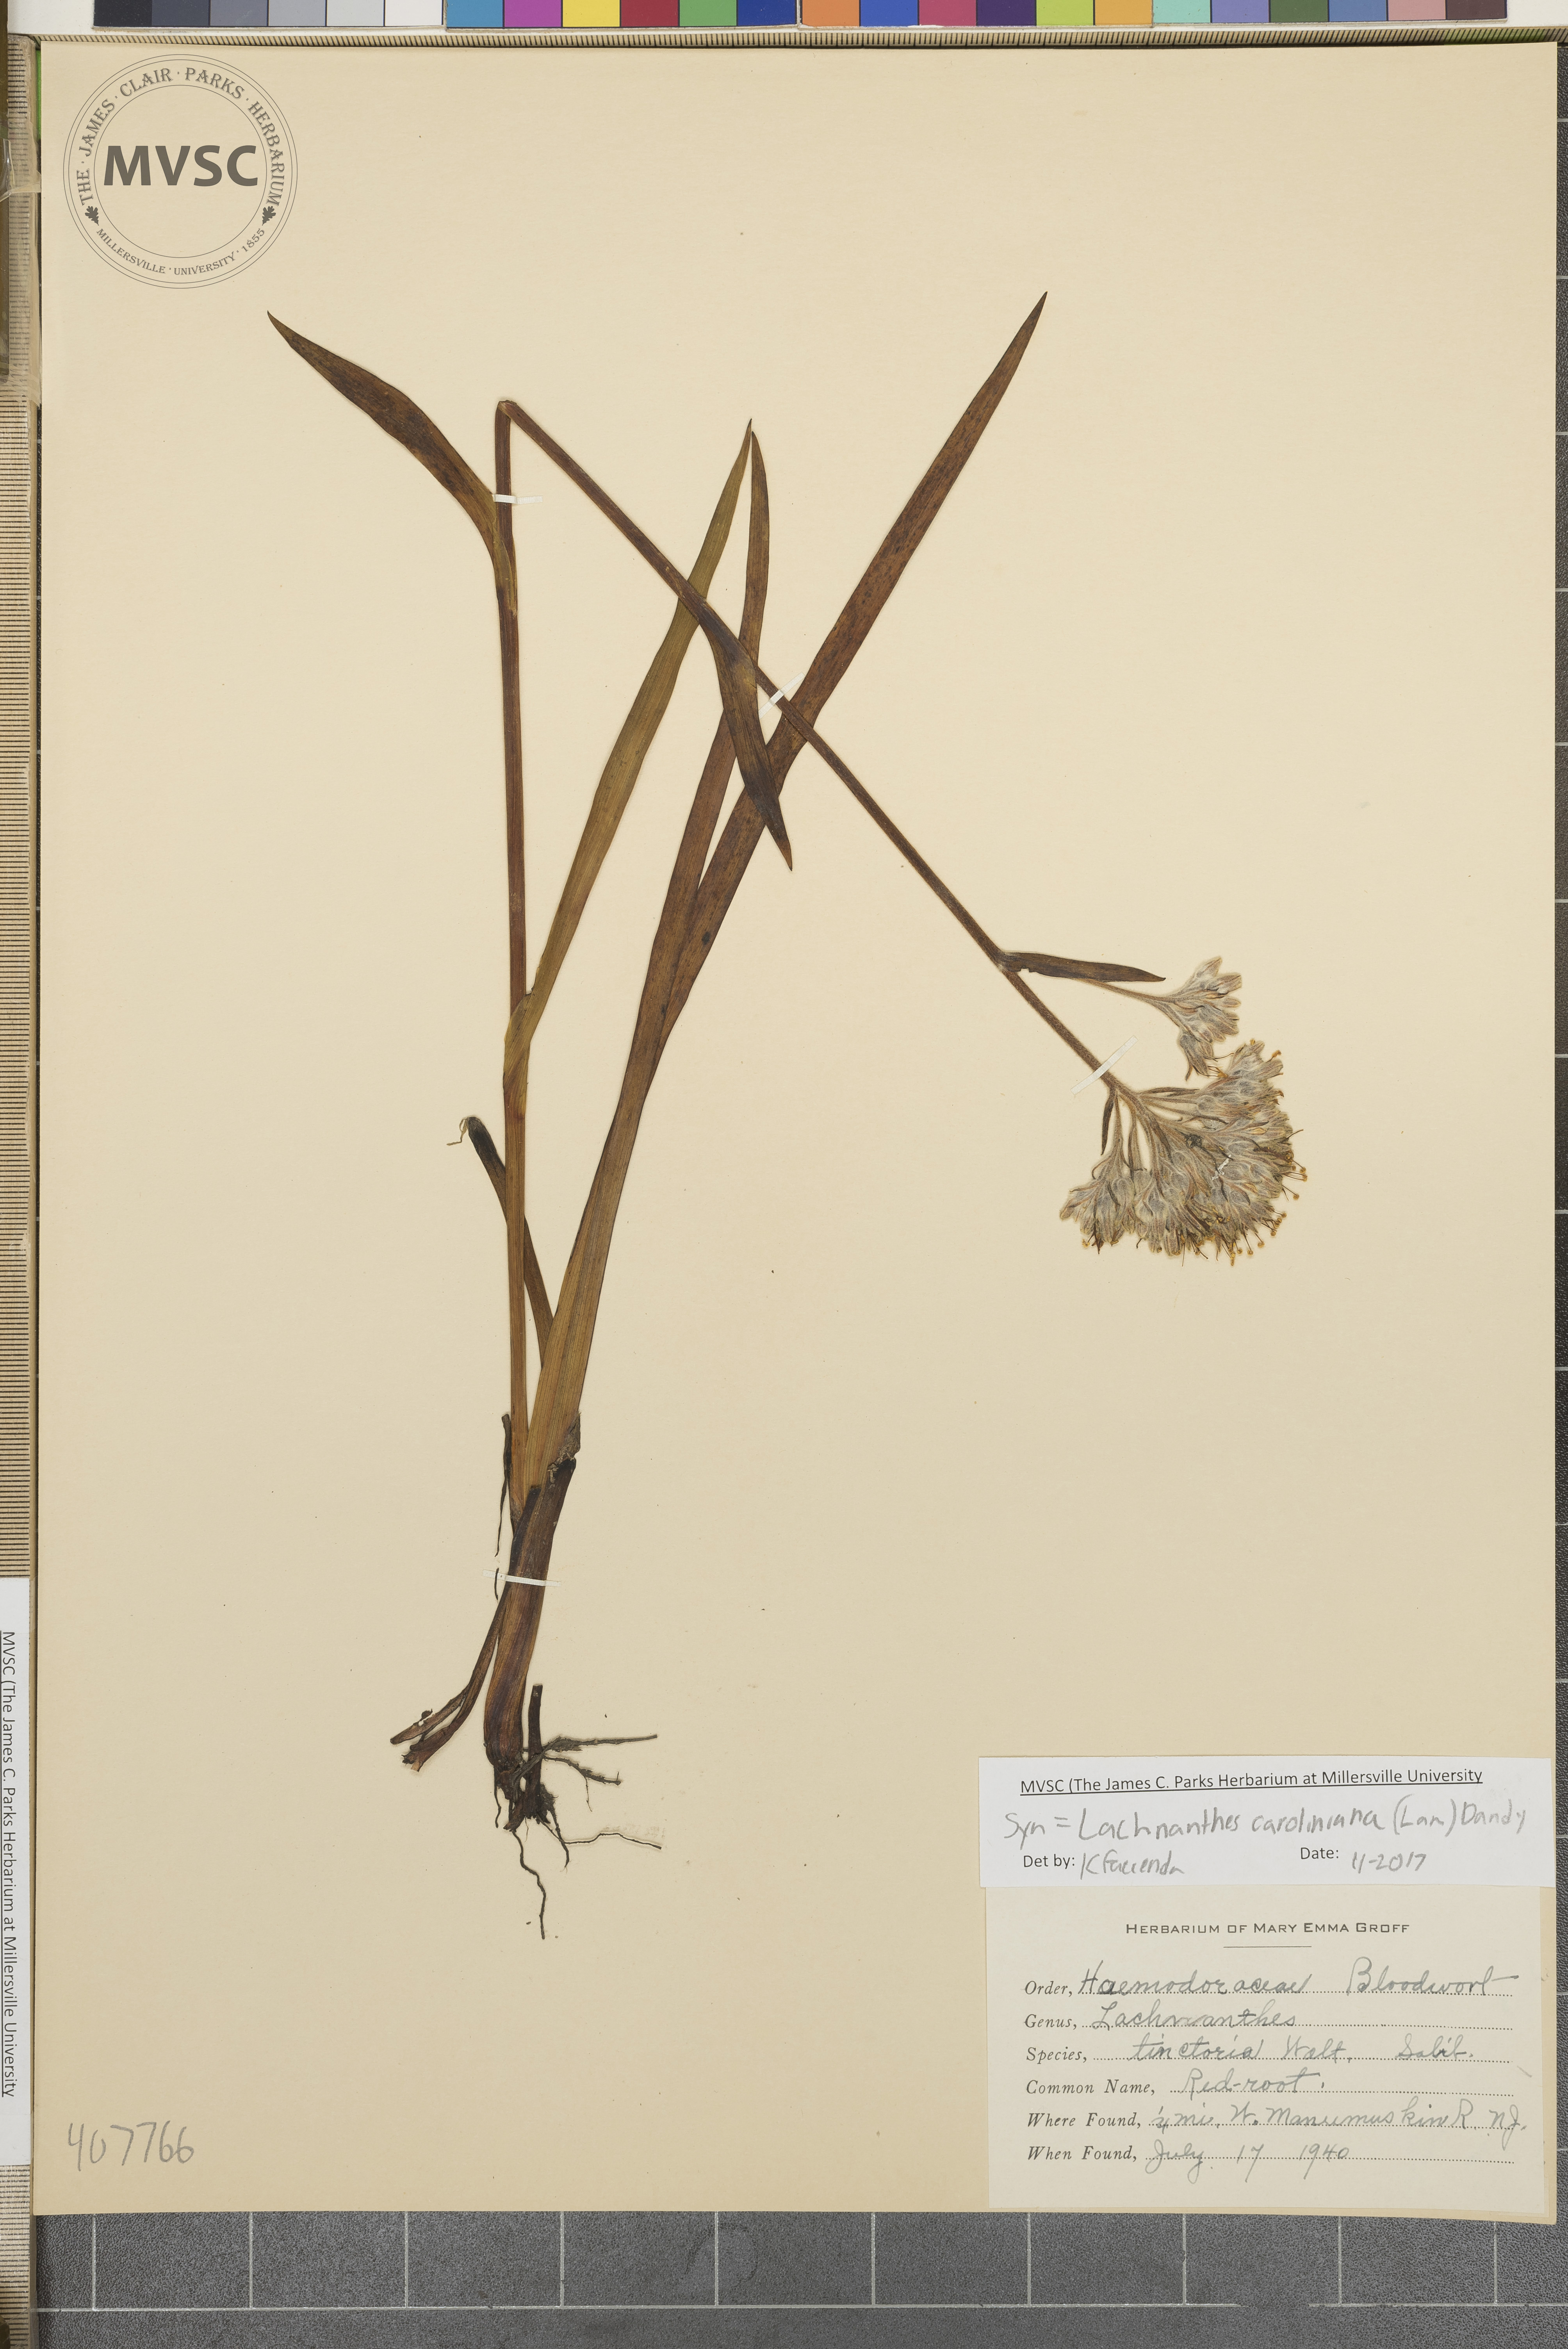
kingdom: Plantae
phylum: Tracheophyta
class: Liliopsida
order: Commelinales
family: Haemodoraceae
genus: Lachnanthes
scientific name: Lachnanthes caroliniana
